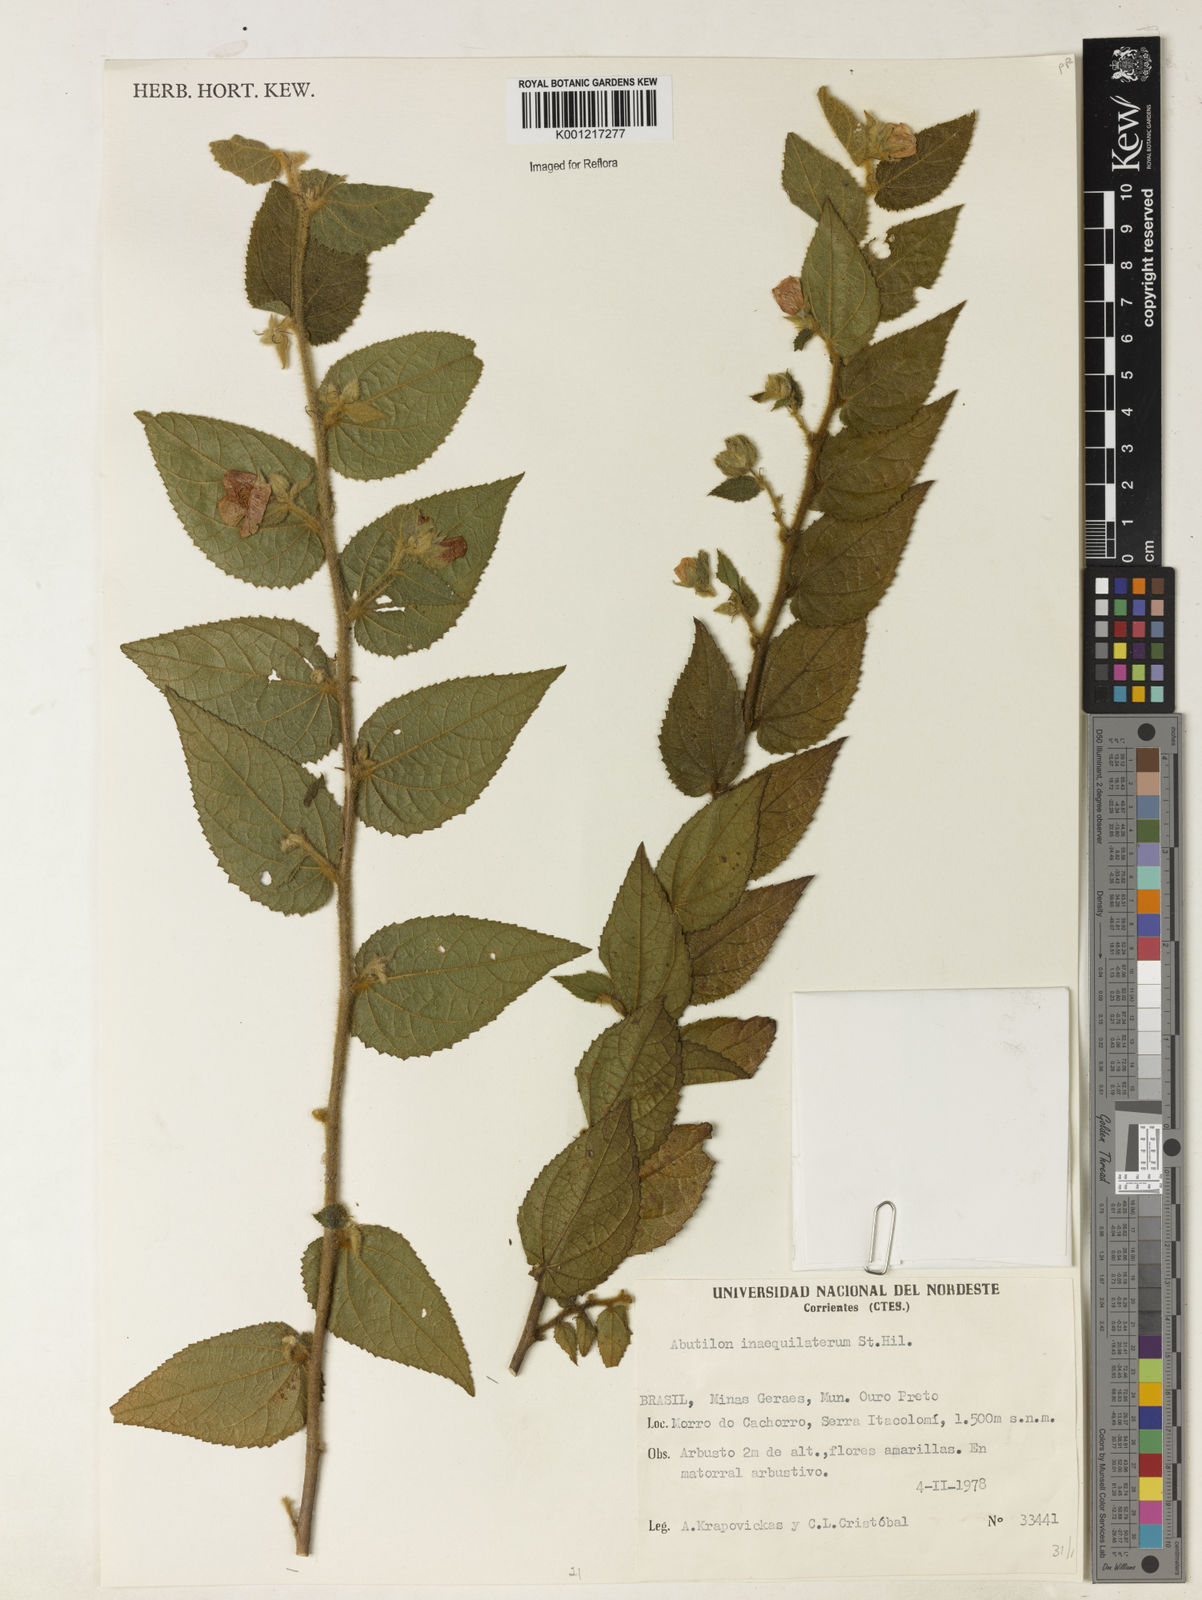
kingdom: Plantae
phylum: Tracheophyta
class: Magnoliopsida
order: Malvales
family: Malvaceae
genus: Abutilon
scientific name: Abutilon inaequilaterum
